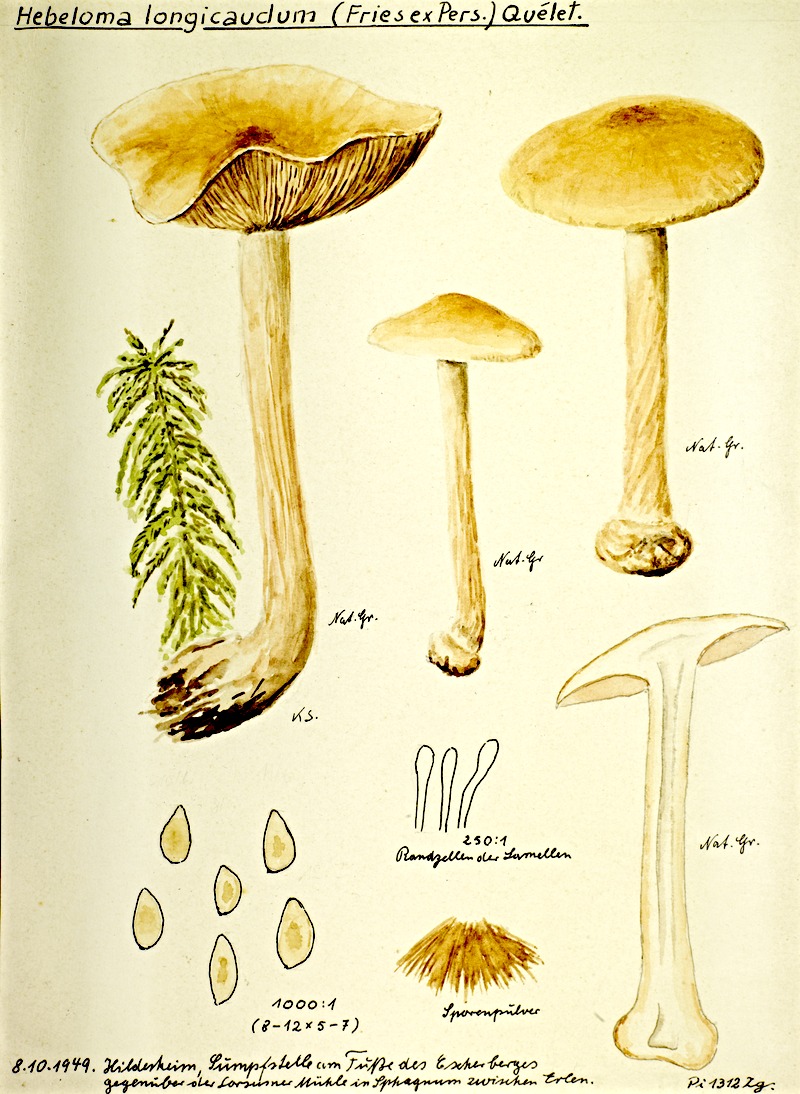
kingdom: Plantae
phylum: Tracheophyta
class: Magnoliopsida
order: Fagales
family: Betulaceae
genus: Alnus
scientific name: Alnus
